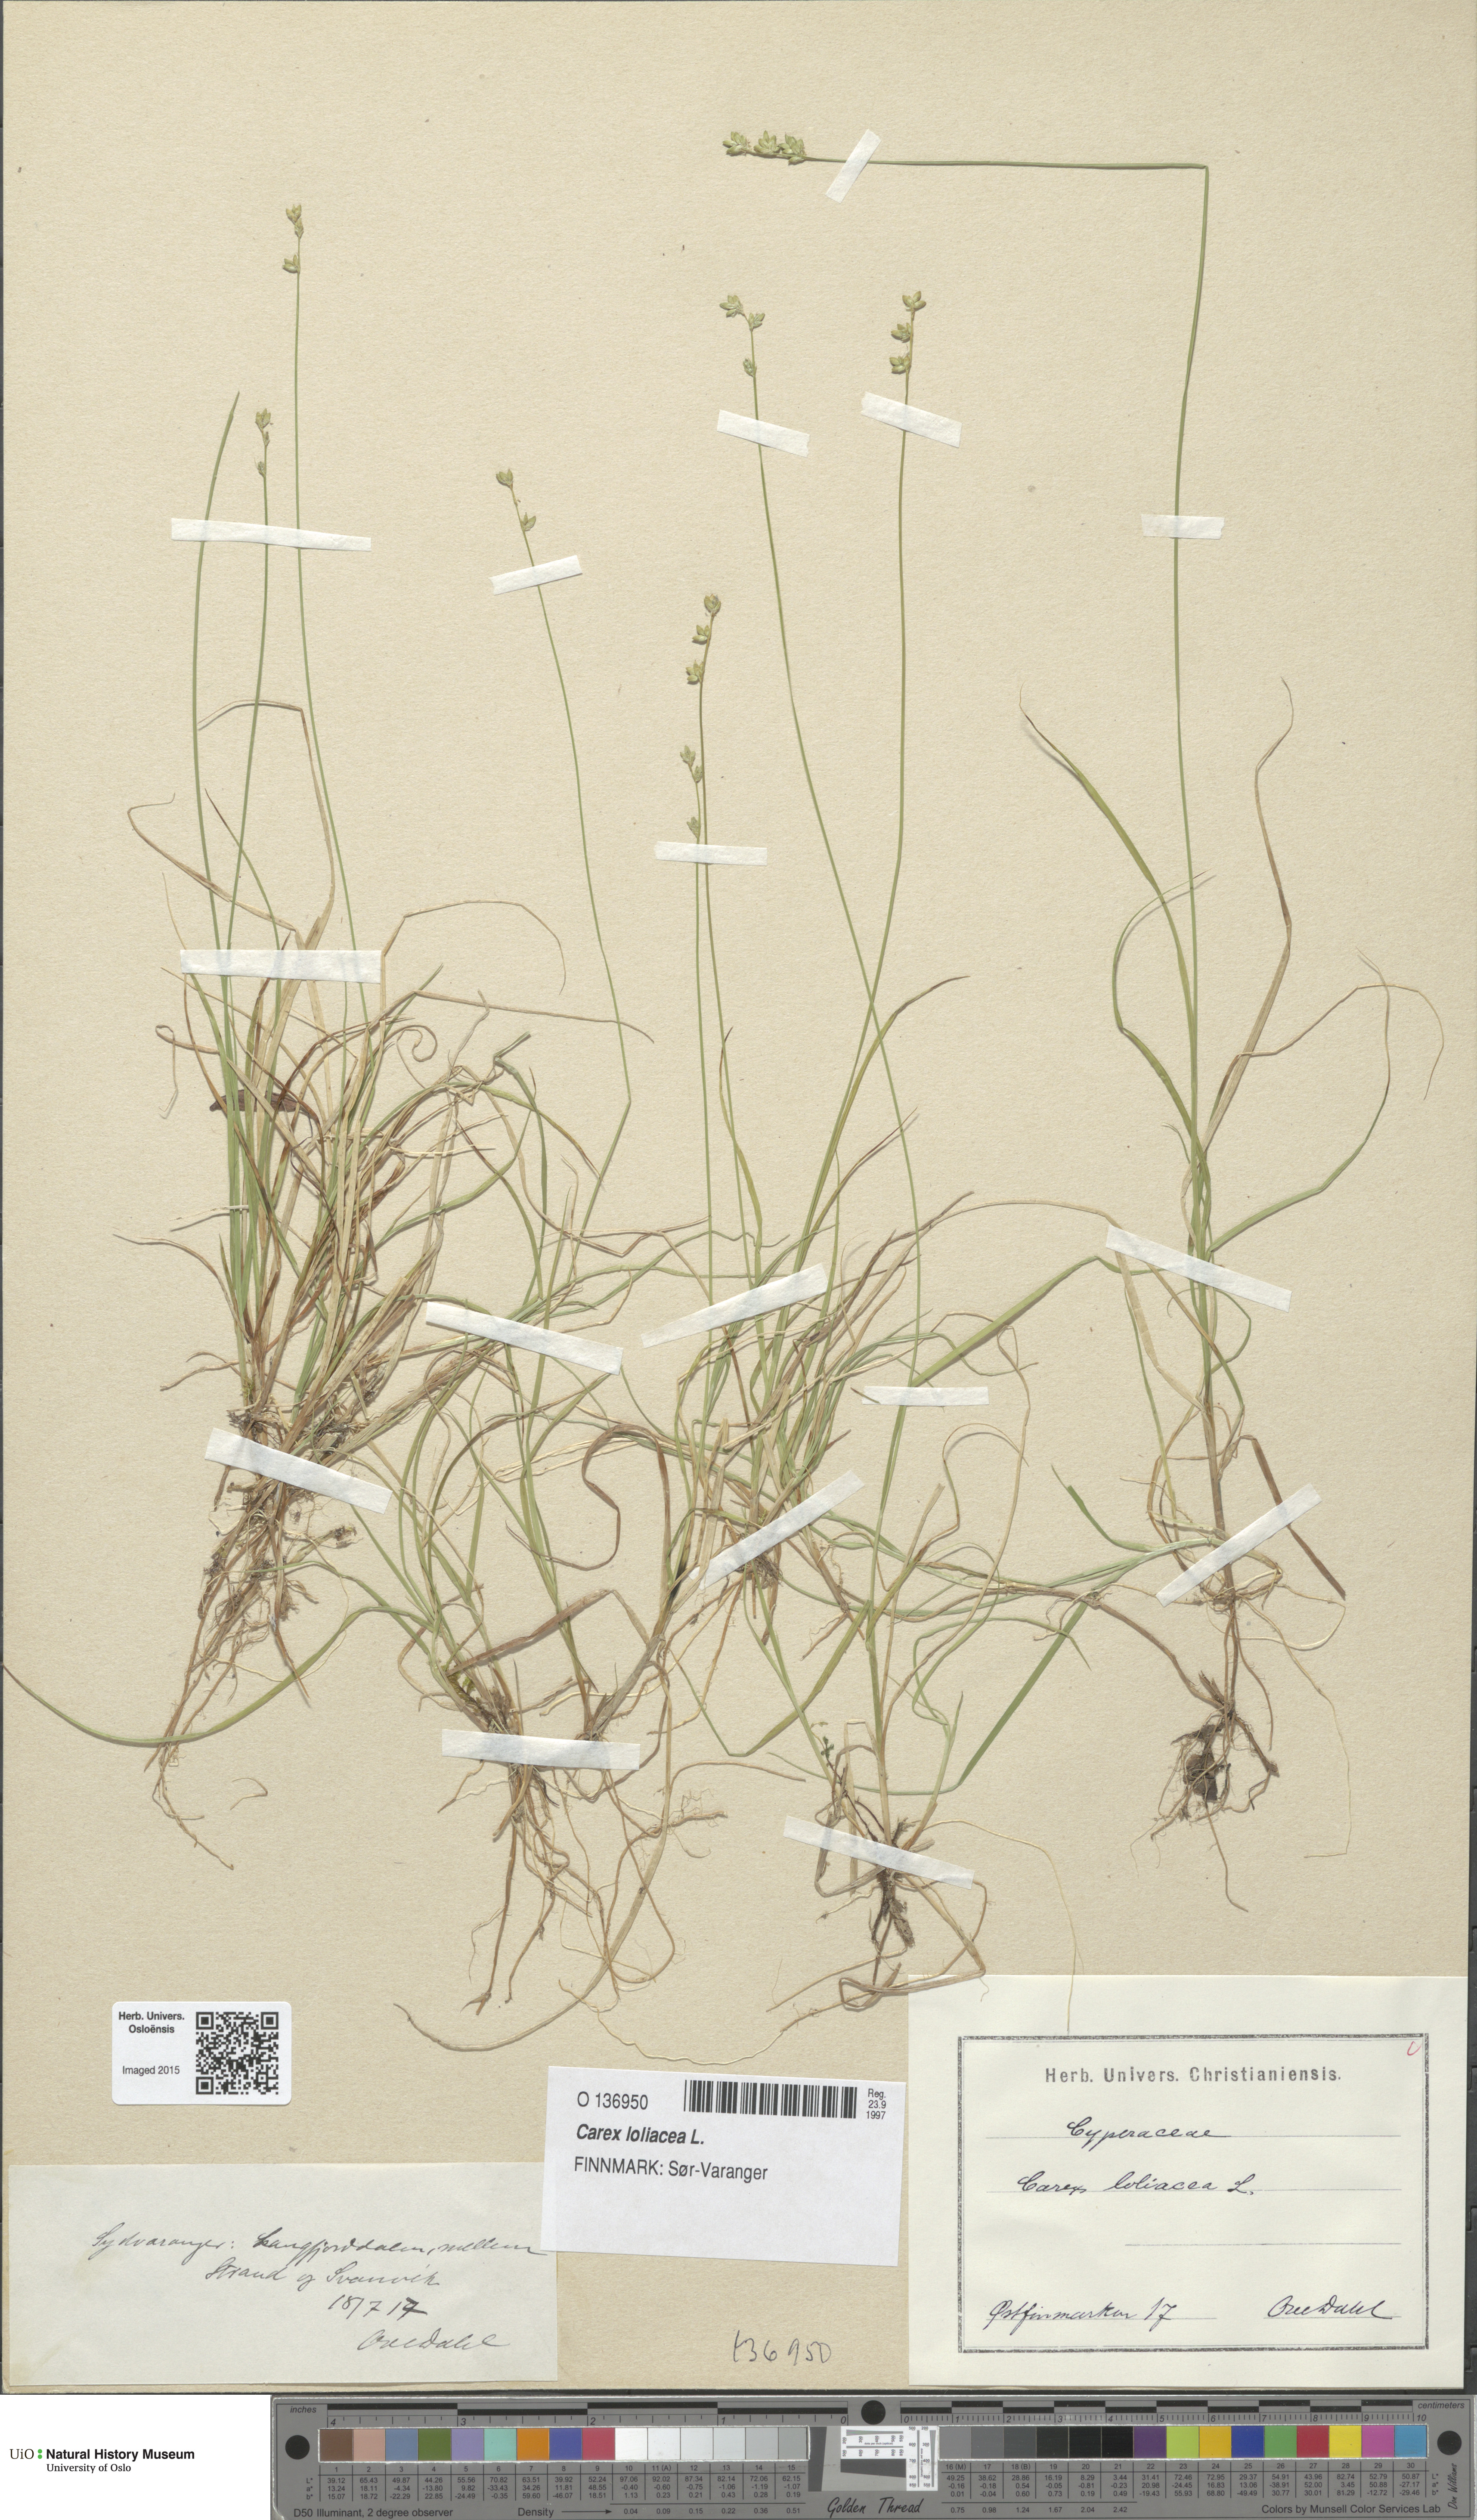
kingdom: Plantae
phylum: Tracheophyta
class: Liliopsida
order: Poales
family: Cyperaceae
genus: Carex
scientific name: Carex loliacea
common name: Ryegrass sedge
